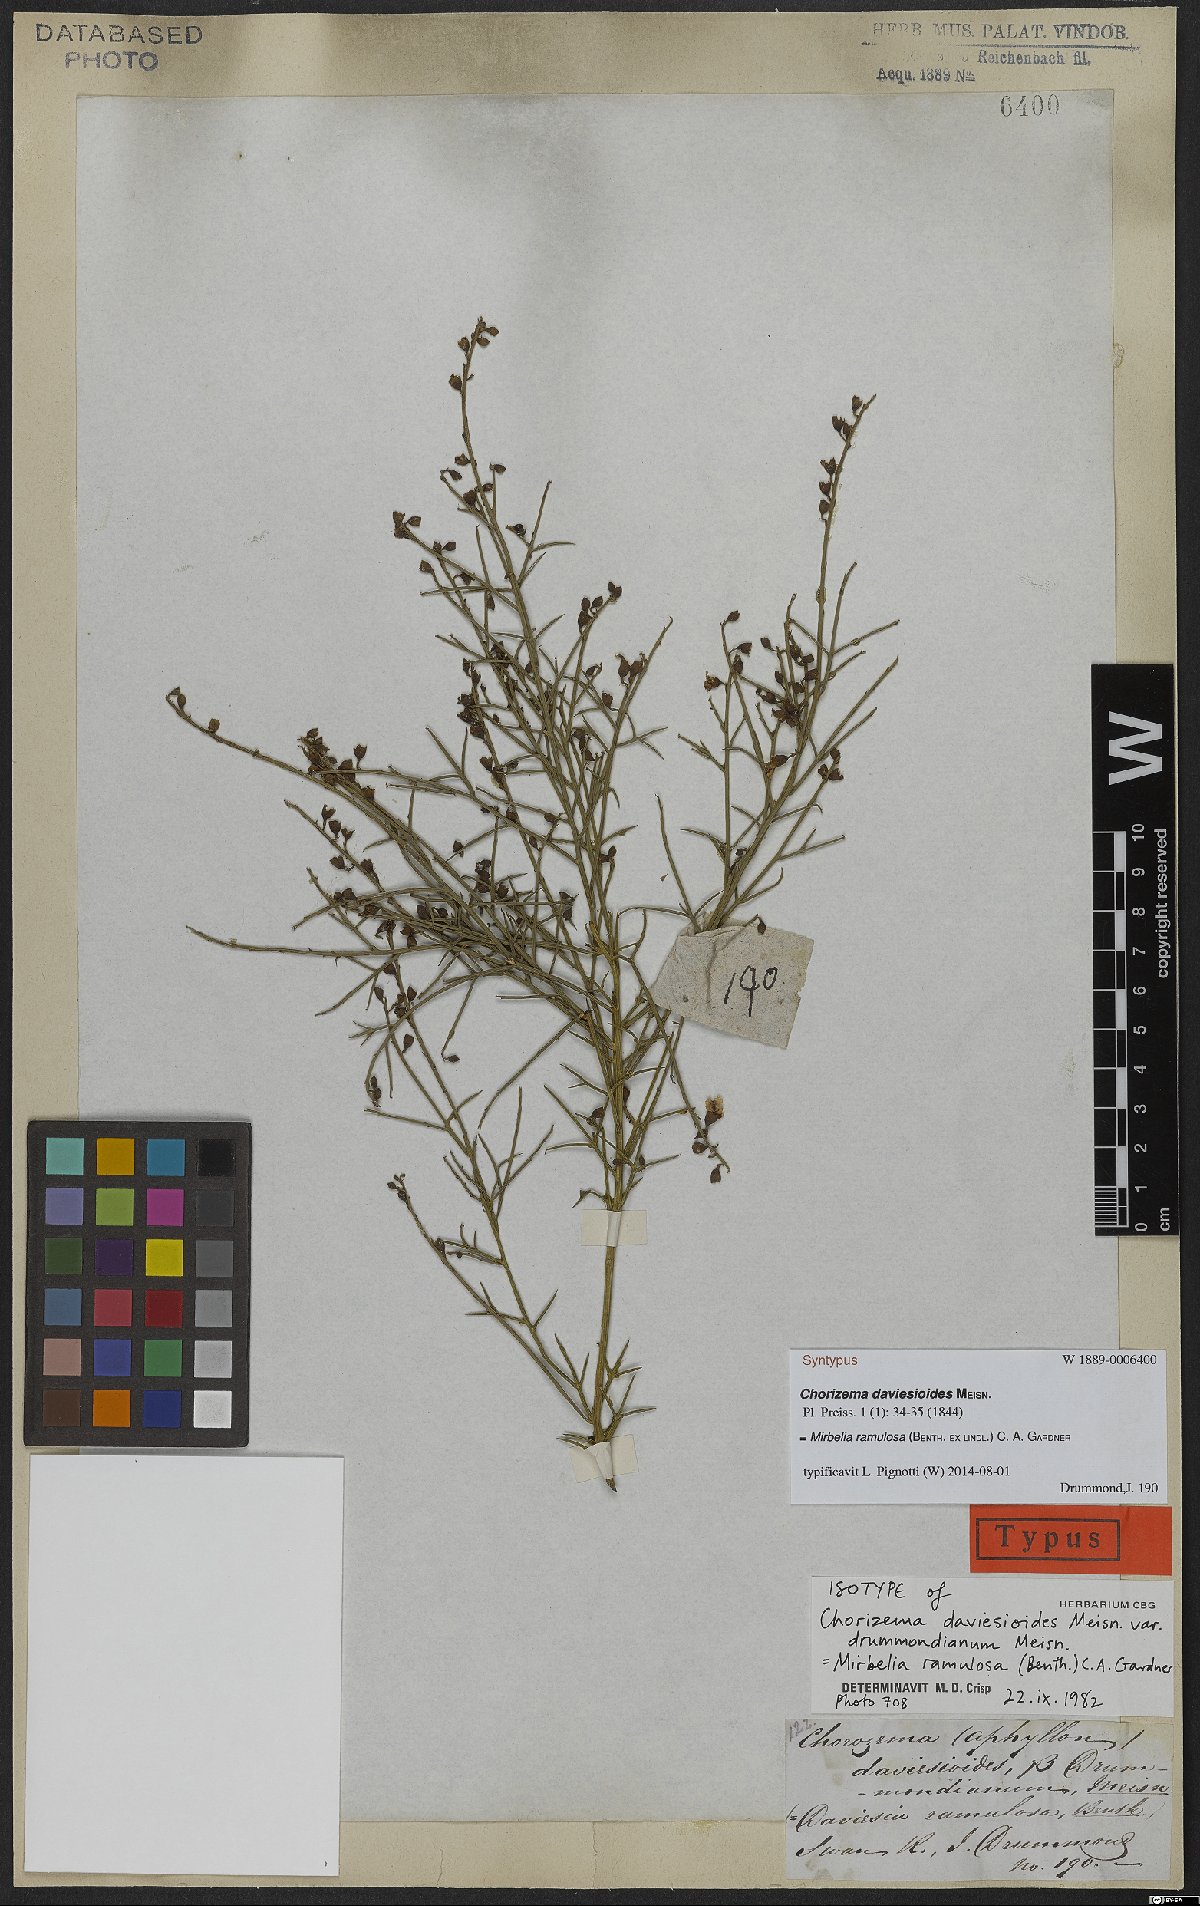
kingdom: Plantae
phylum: Tracheophyta
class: Magnoliopsida
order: Fabales
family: Fabaceae
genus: Mirbelia
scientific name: Mirbelia ramulosa
